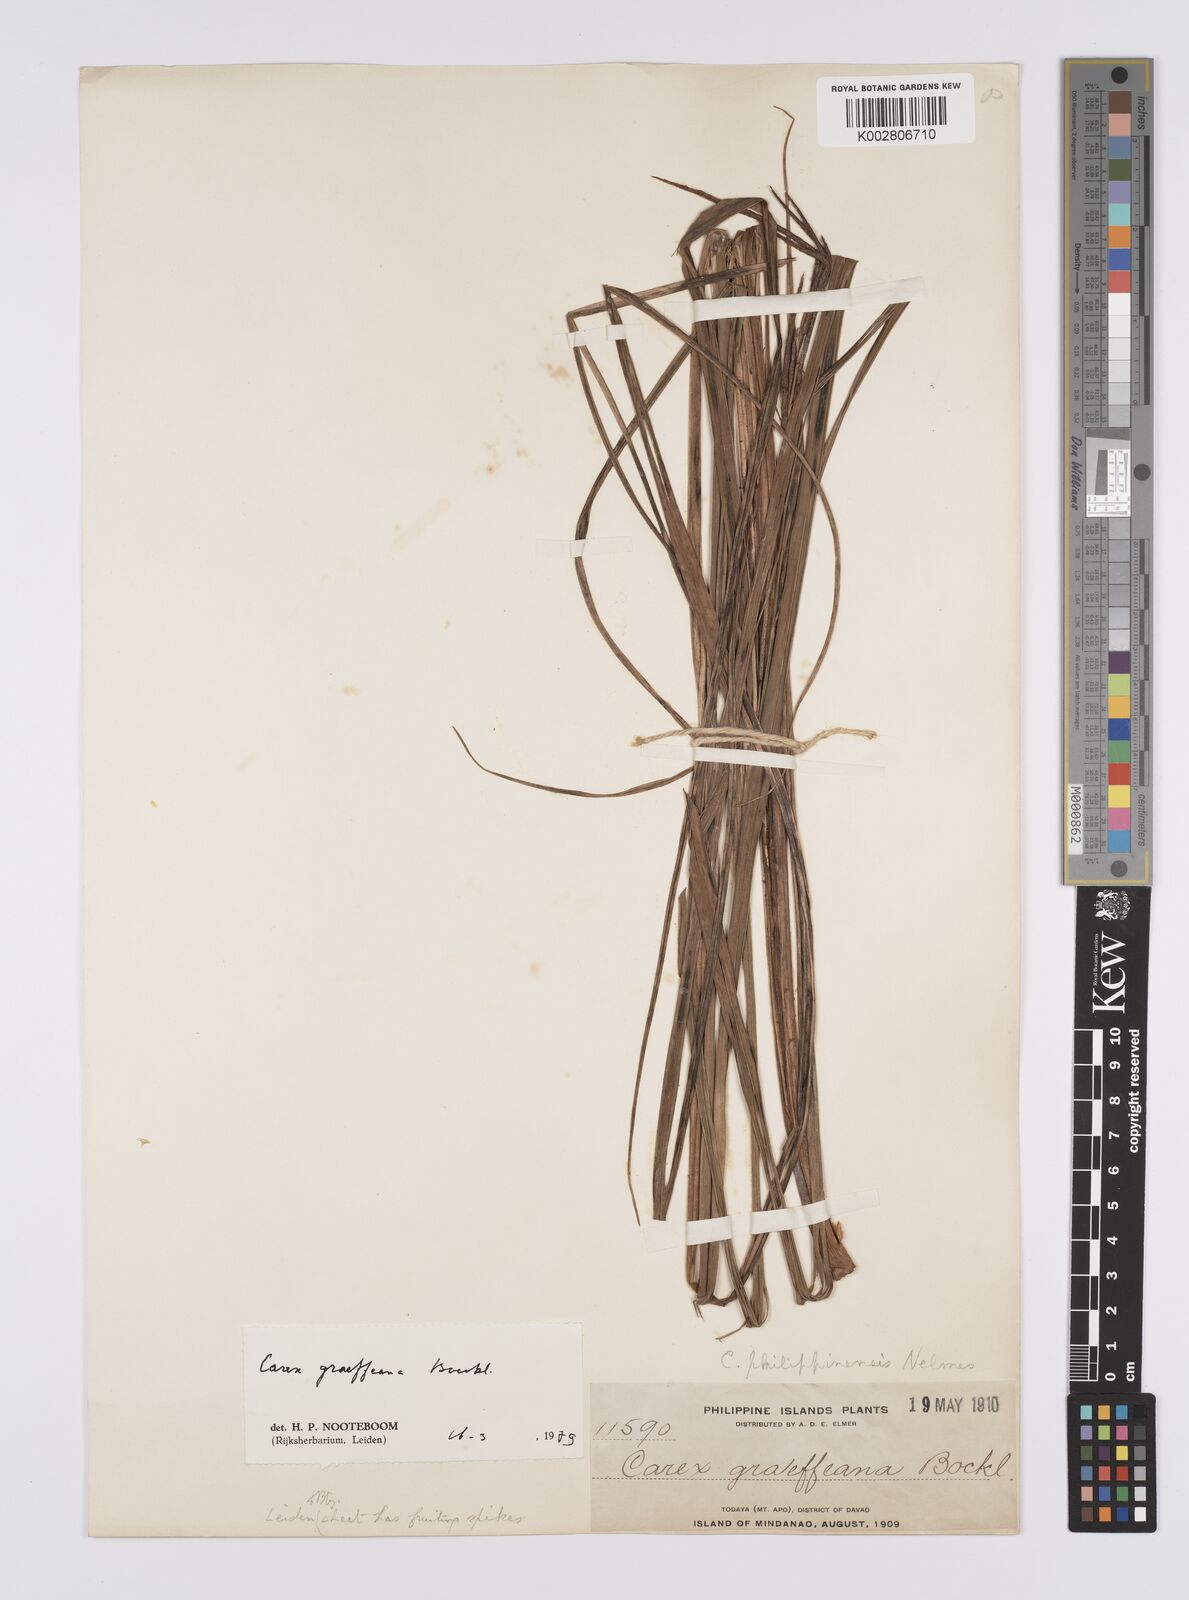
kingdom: Plantae
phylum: Tracheophyta
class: Liliopsida
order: Poales
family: Cyperaceae
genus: Carex
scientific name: Carex graeffeana
